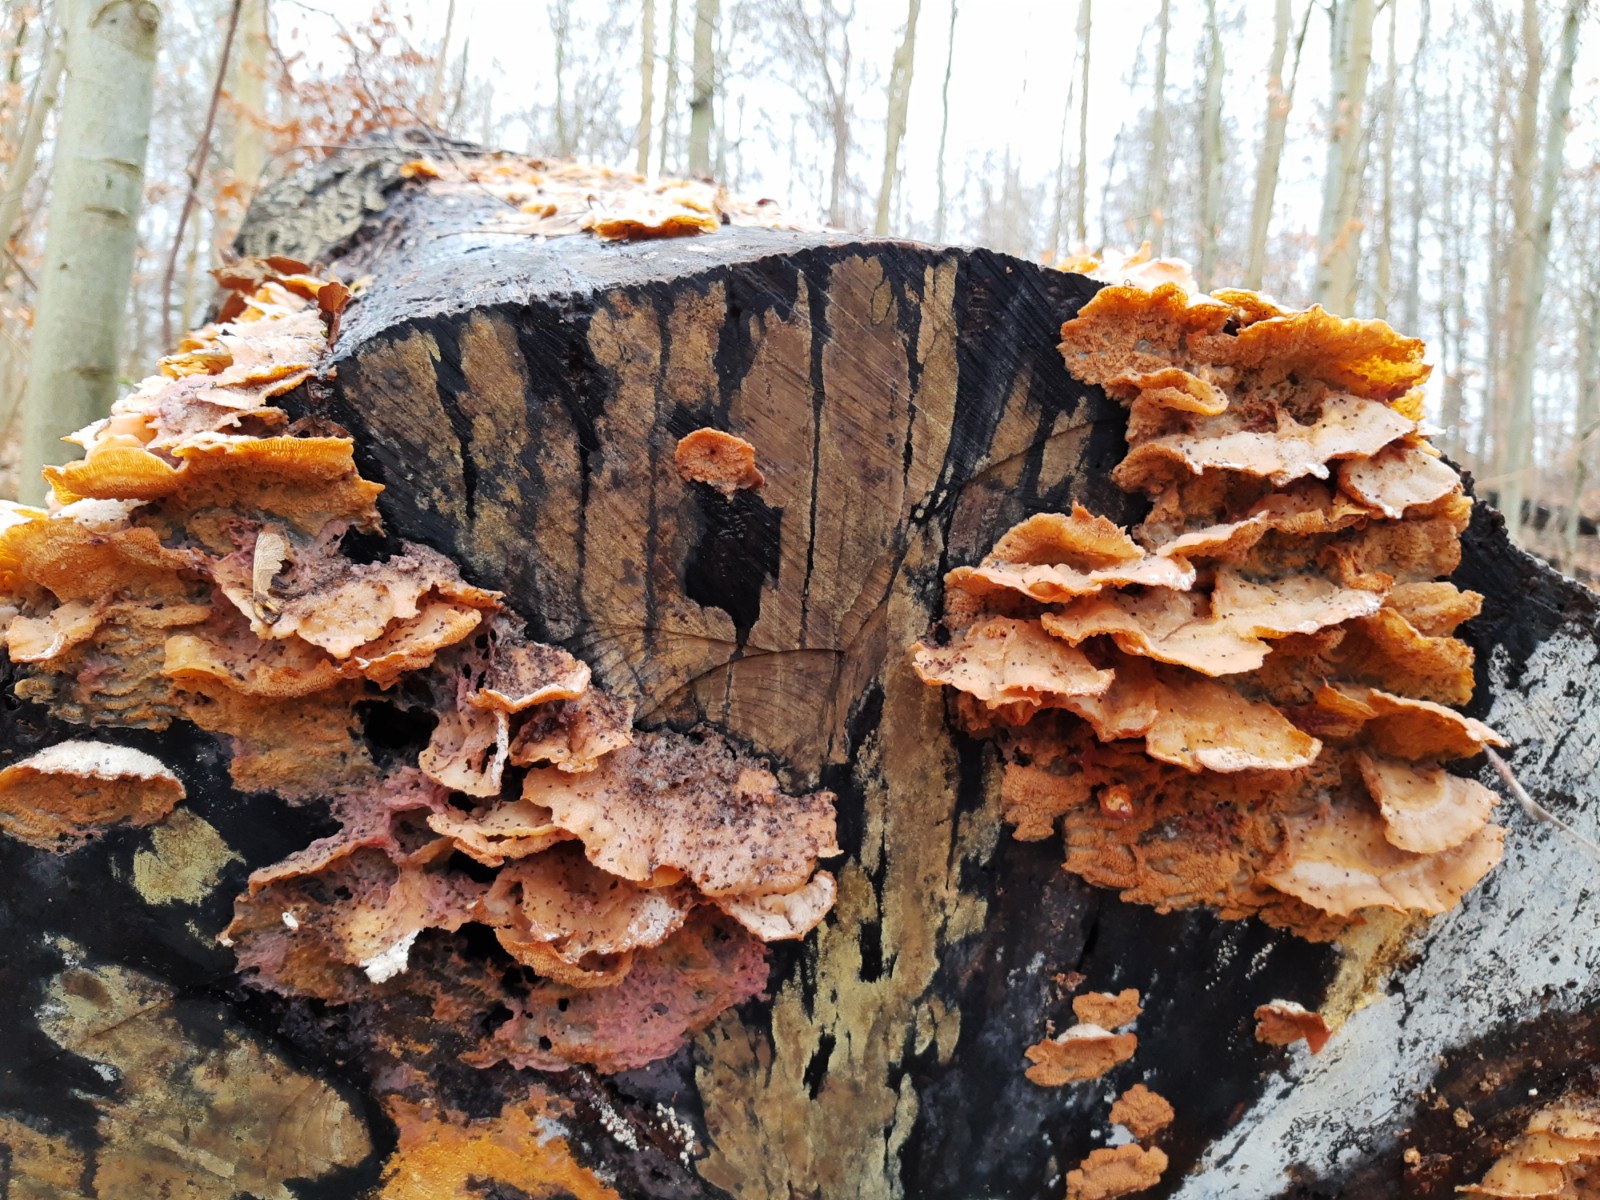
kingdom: Fungi
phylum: Basidiomycota
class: Agaricomycetes
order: Polyporales
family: Meruliaceae
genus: Phlebia
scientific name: Phlebia tremellosa
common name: bævrende åresvamp
